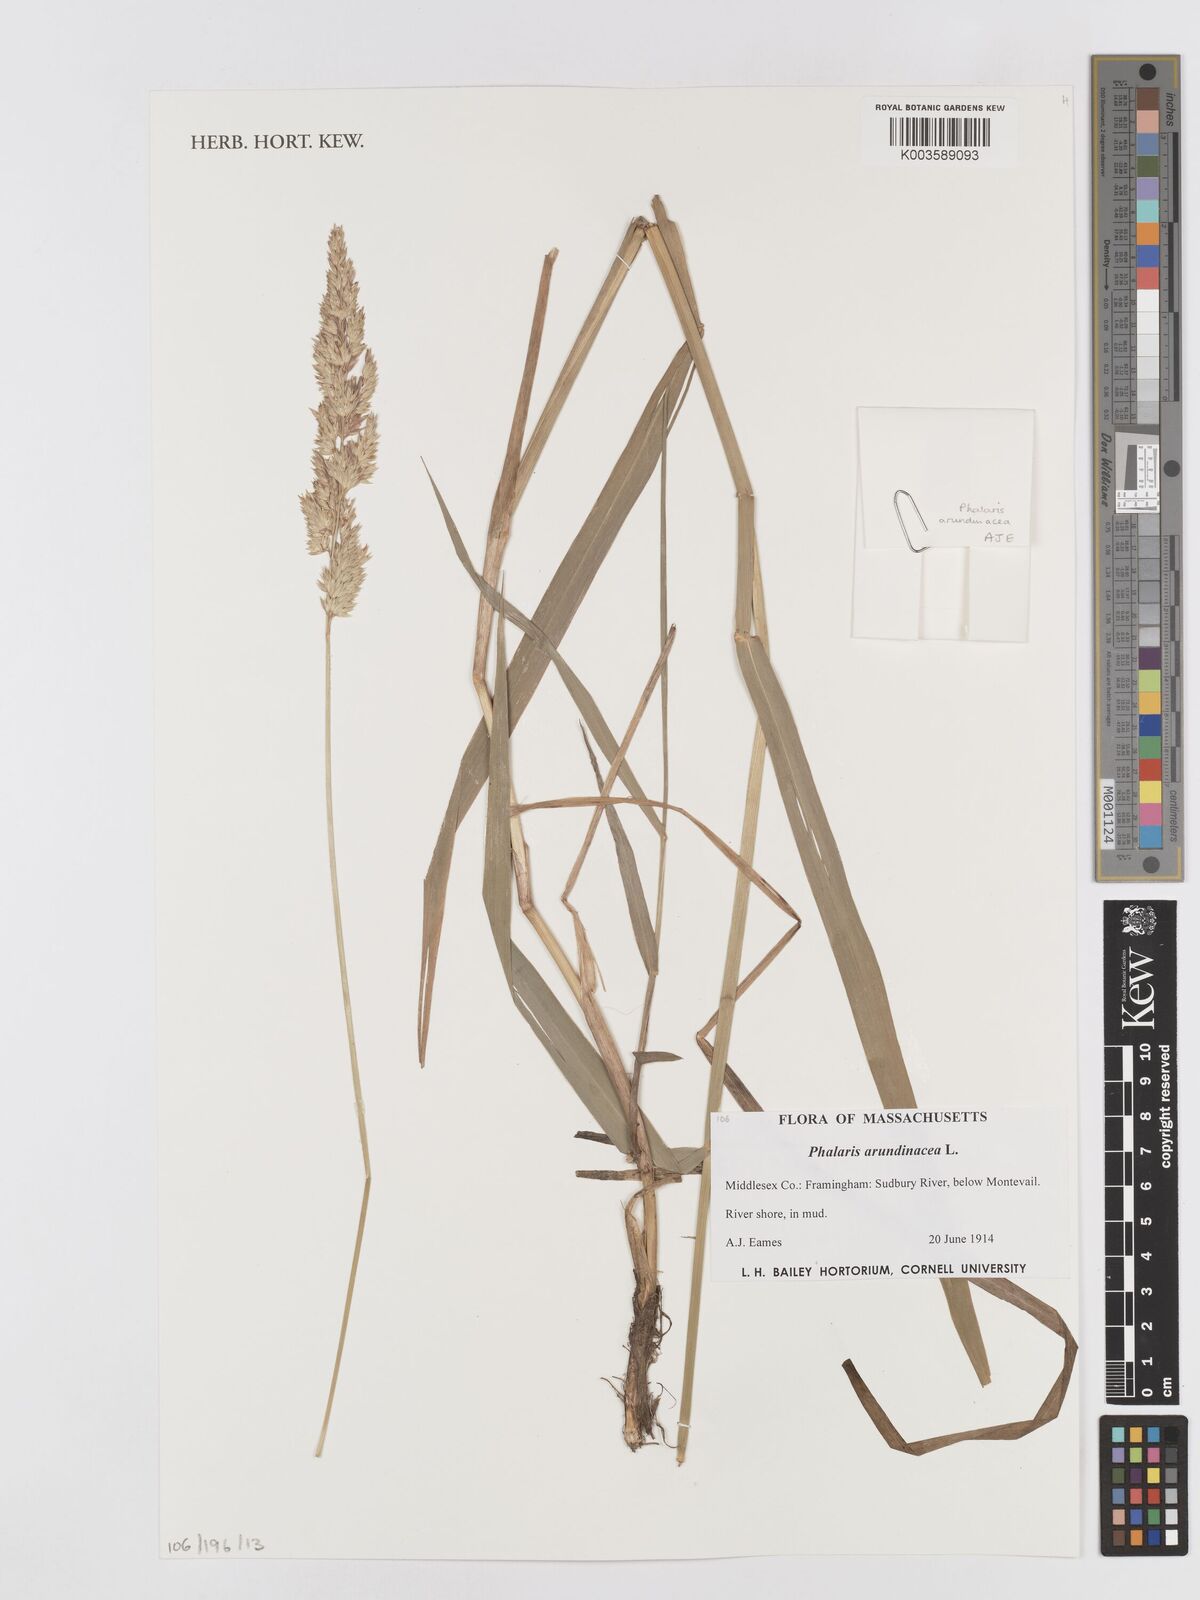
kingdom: Plantae
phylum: Tracheophyta
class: Liliopsida
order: Poales
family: Poaceae
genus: Phalaris
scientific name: Phalaris arundinacea
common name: Reed canary-grass
